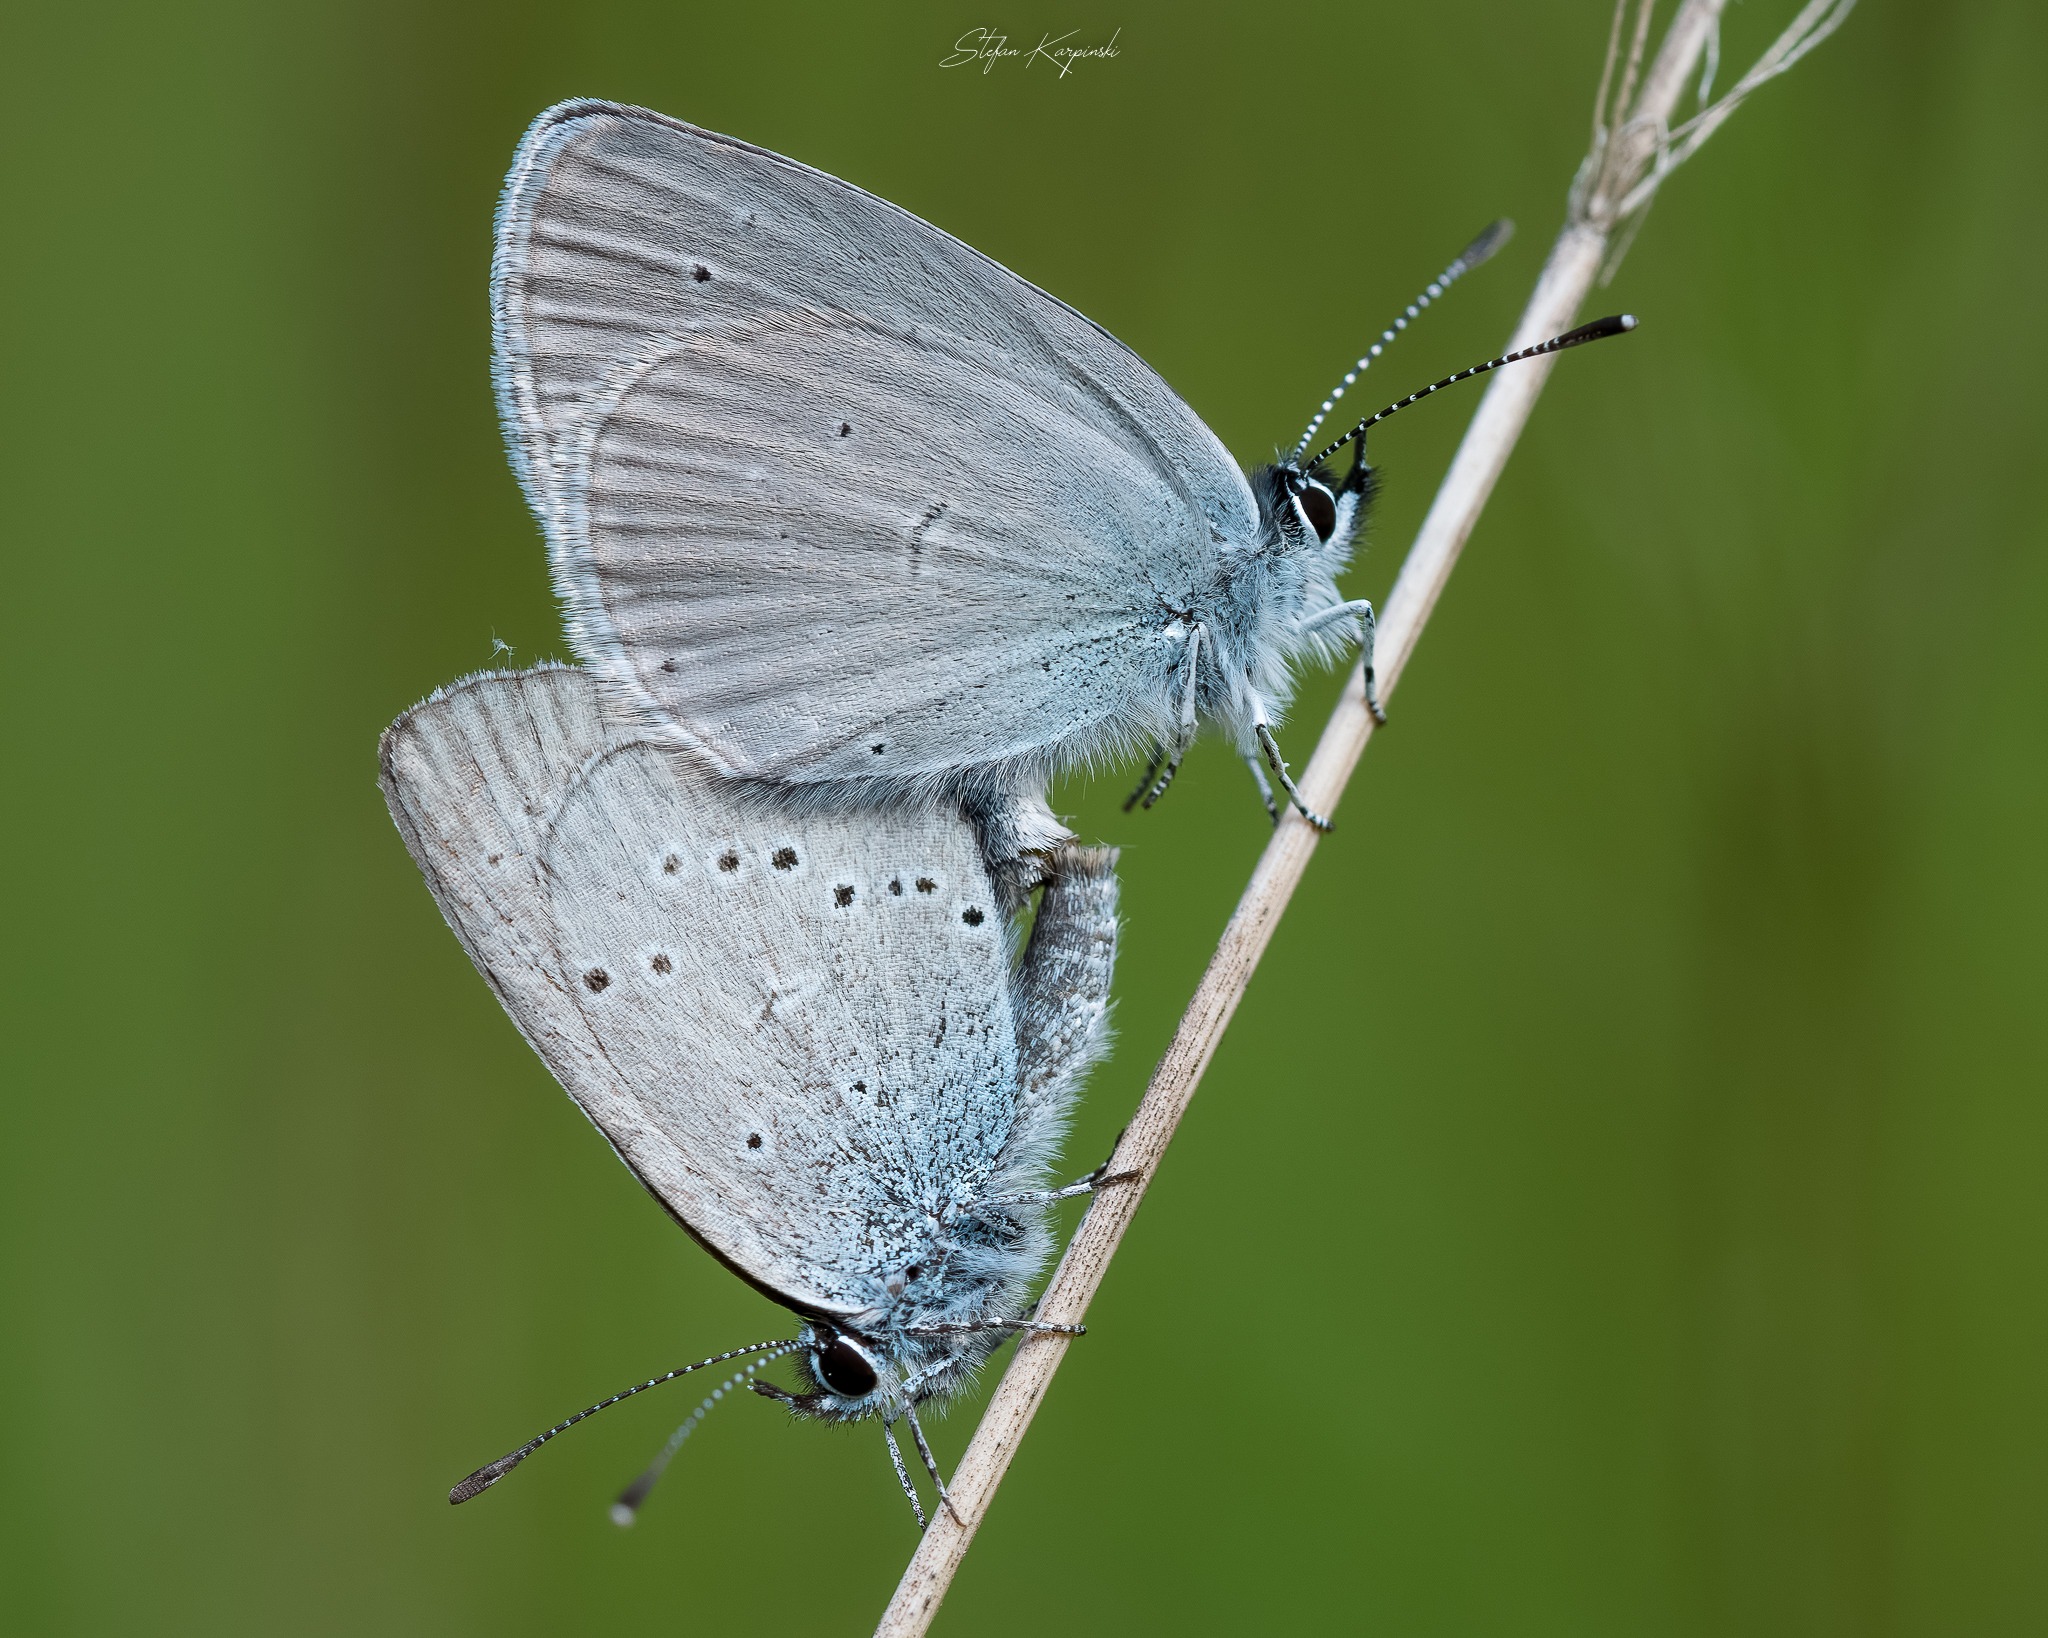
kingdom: Animalia
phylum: Arthropoda
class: Insecta
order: Lepidoptera
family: Lycaenidae
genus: Cupido
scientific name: Cupido minimus
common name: Dværgblåfugl
